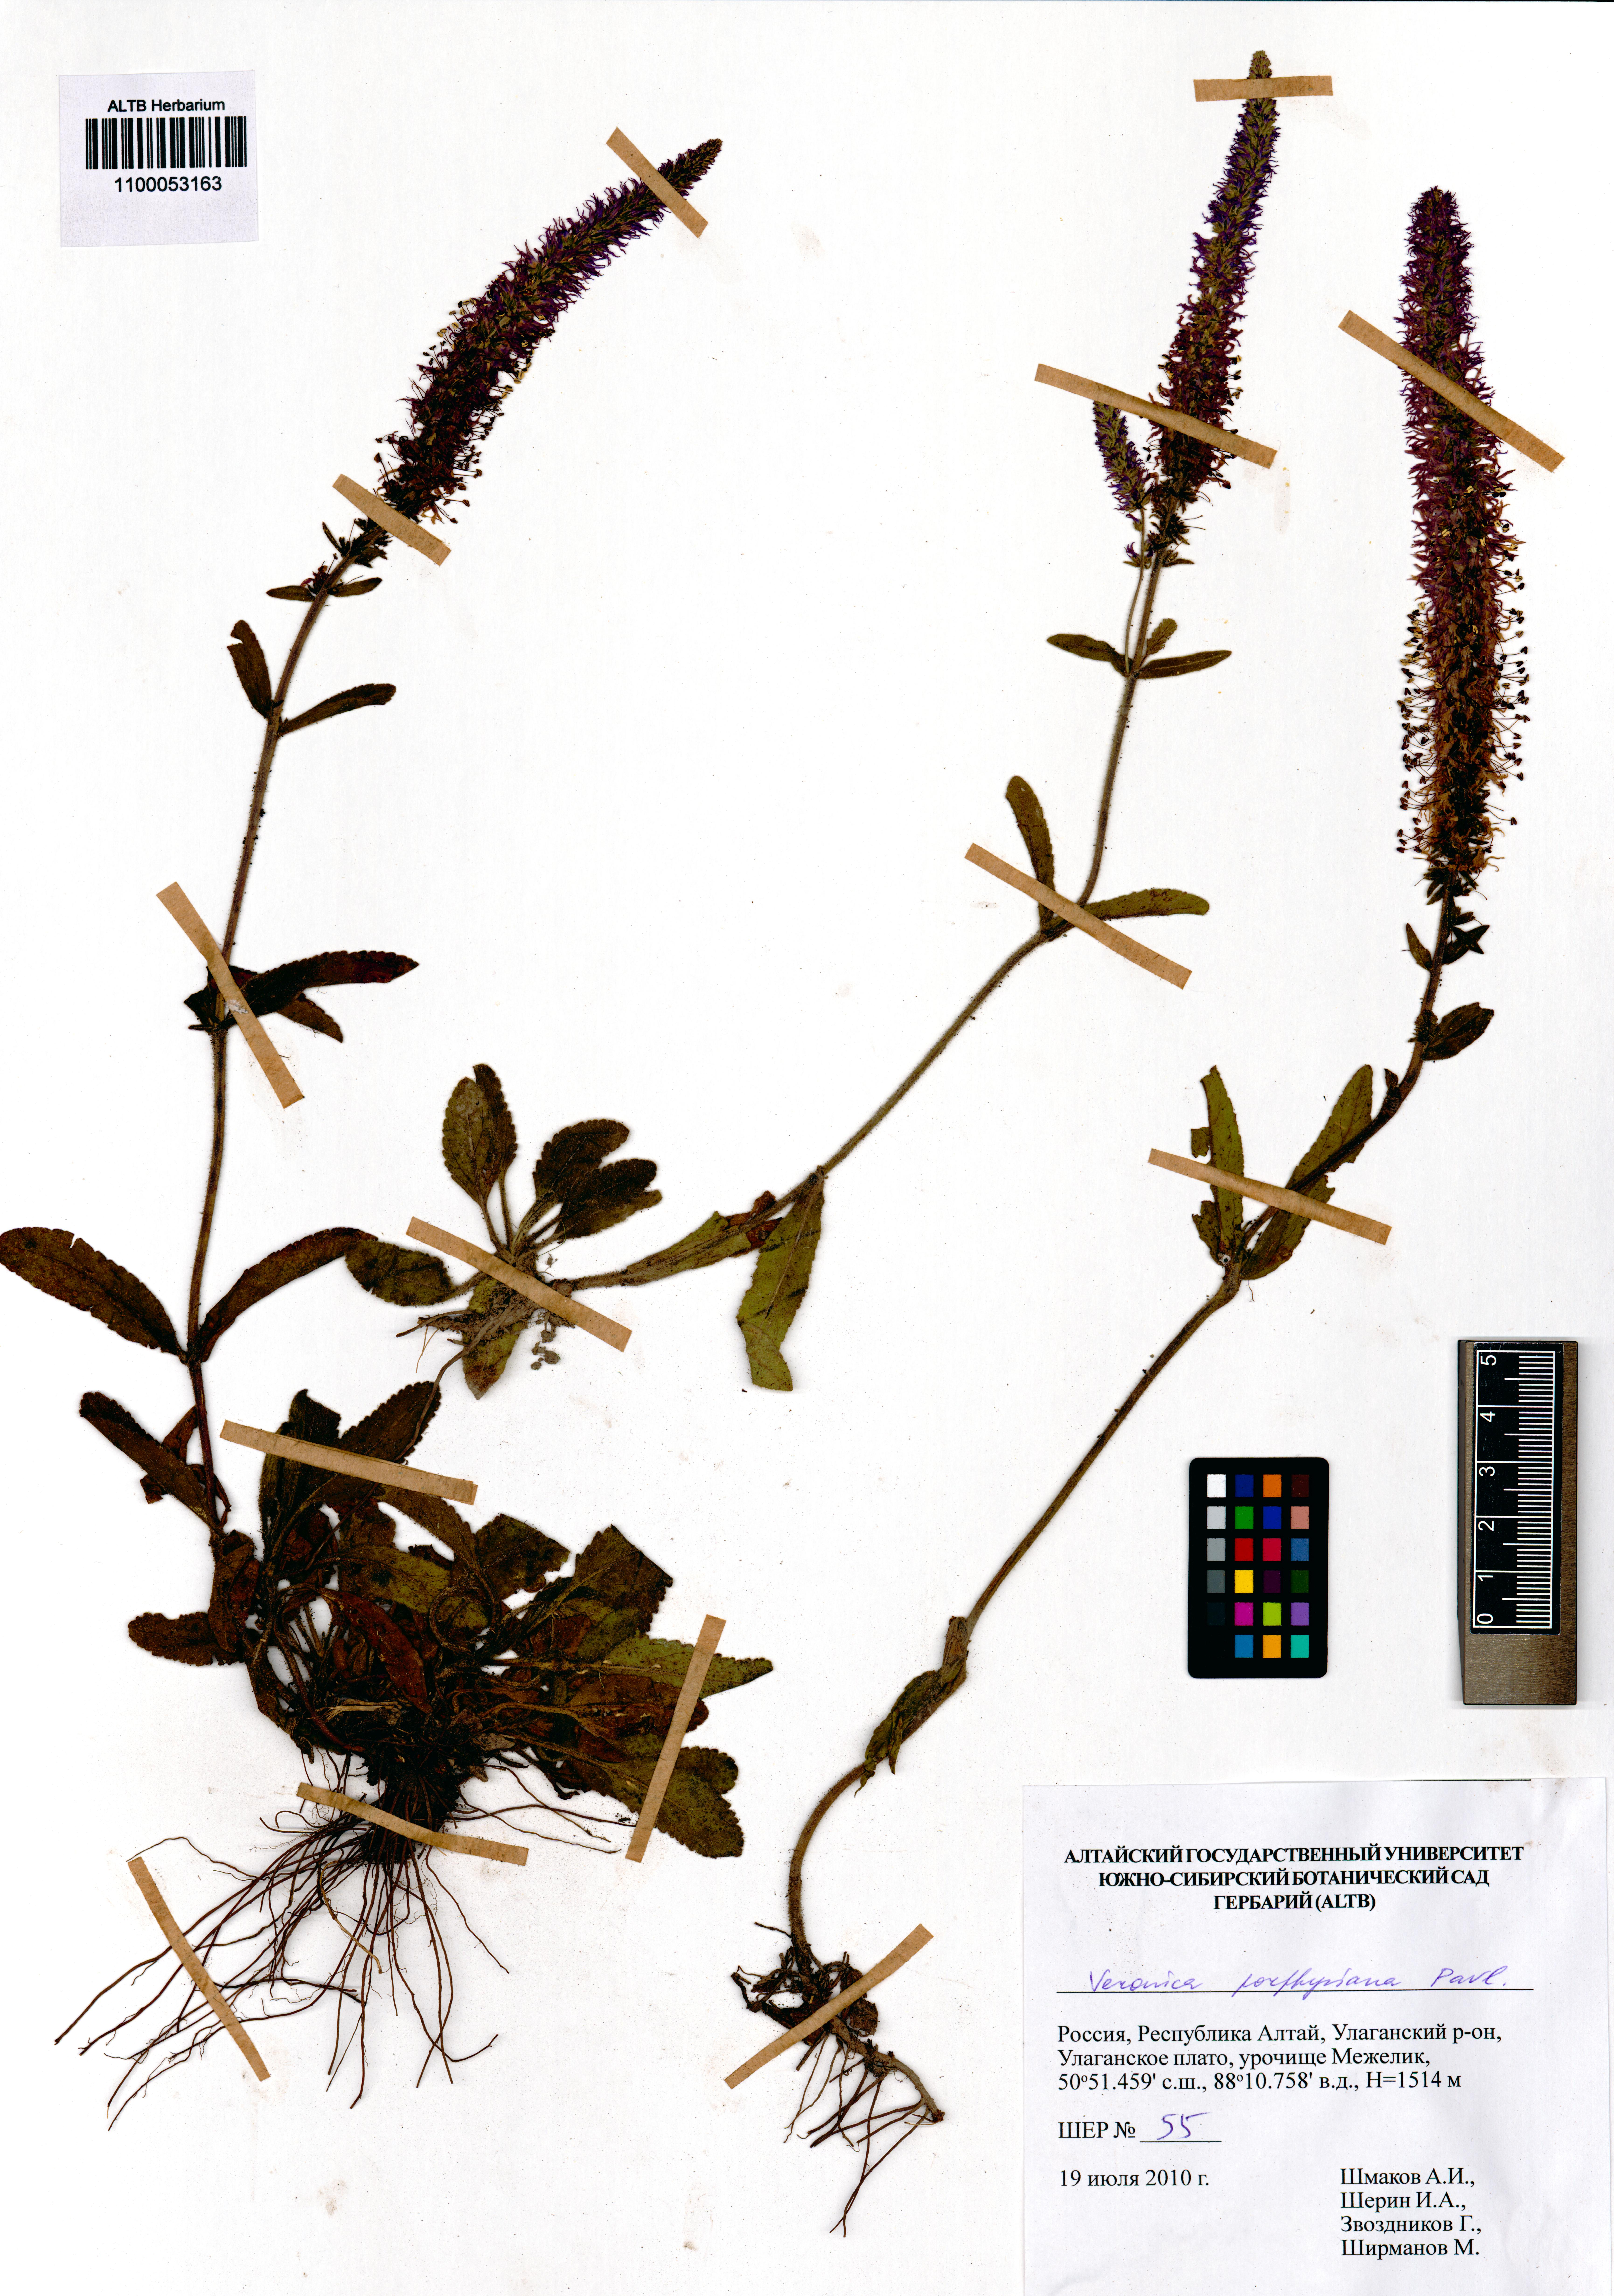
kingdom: Plantae
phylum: Tracheophyta
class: Magnoliopsida
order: Lamiales
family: Plantaginaceae
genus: Veronica
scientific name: Veronica porphyriana
